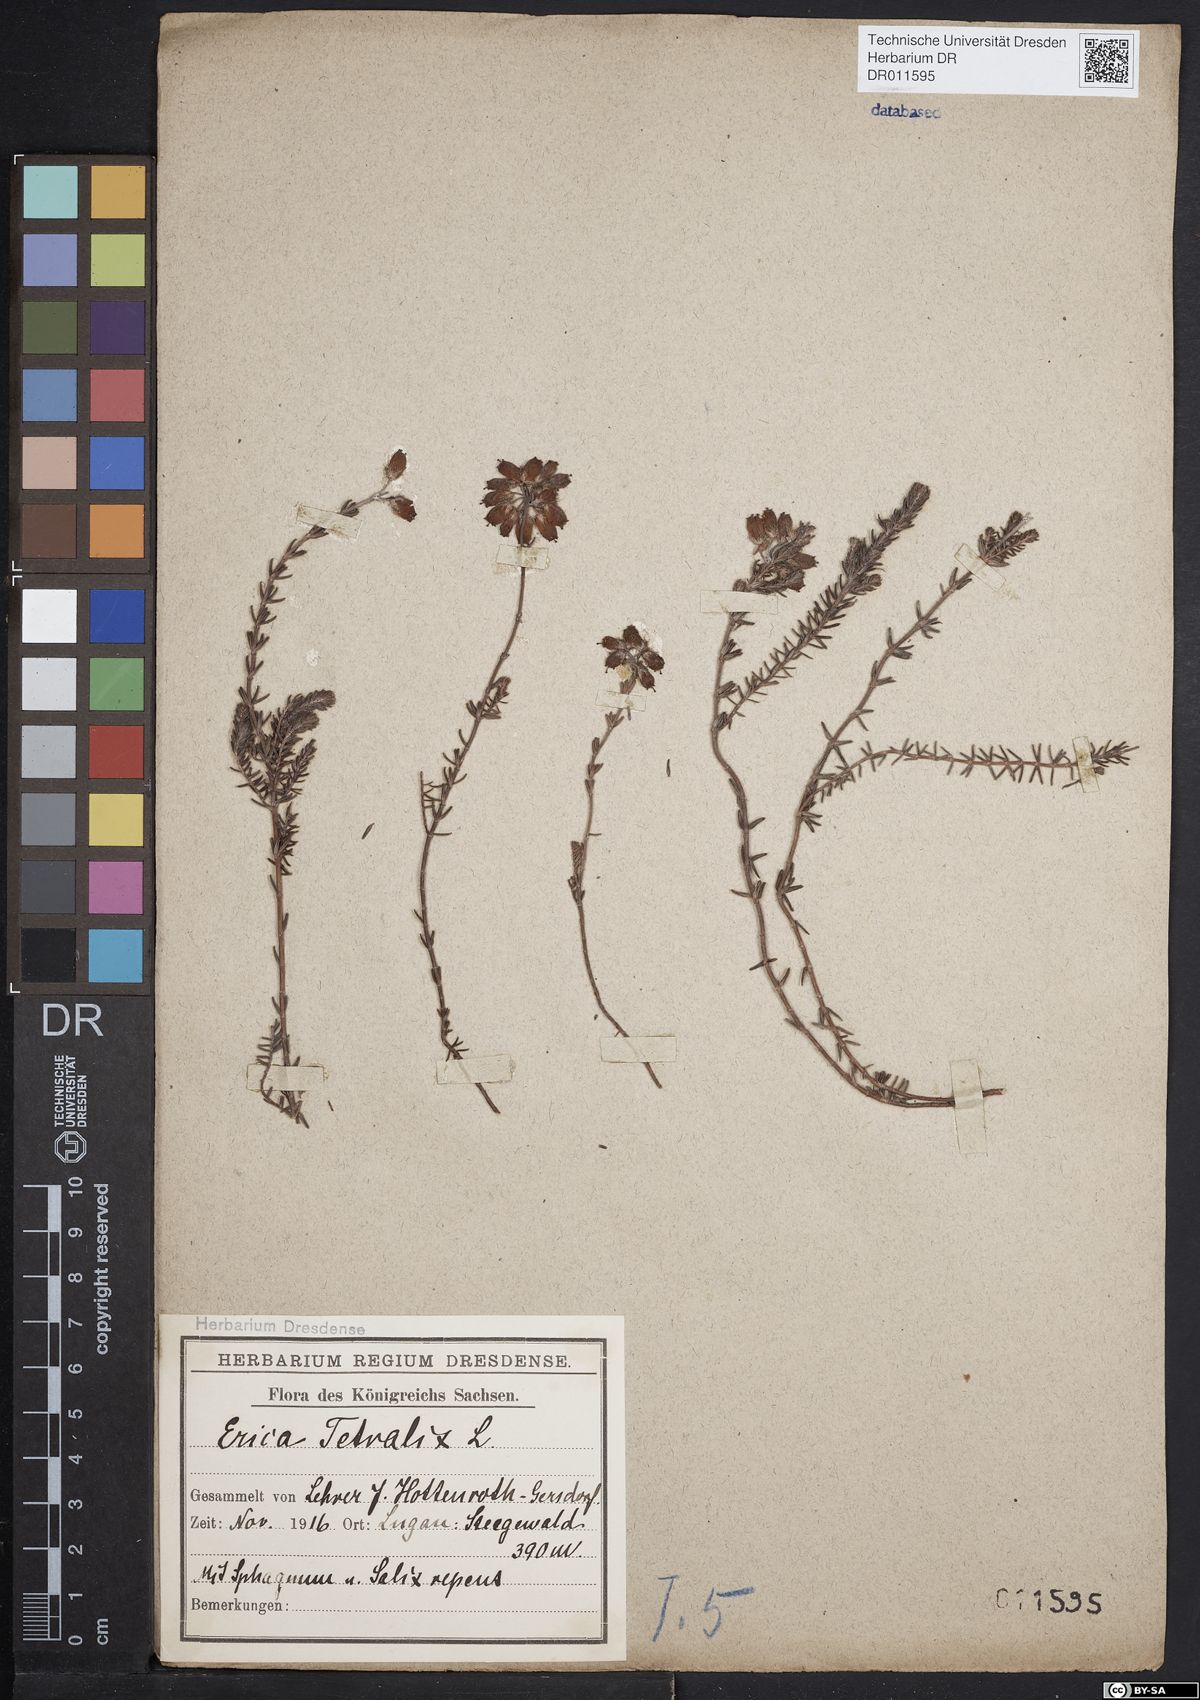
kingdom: Plantae
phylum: Tracheophyta
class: Magnoliopsida
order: Ericales
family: Ericaceae
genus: Erica
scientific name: Erica tetralix
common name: Cross-leaved heath
